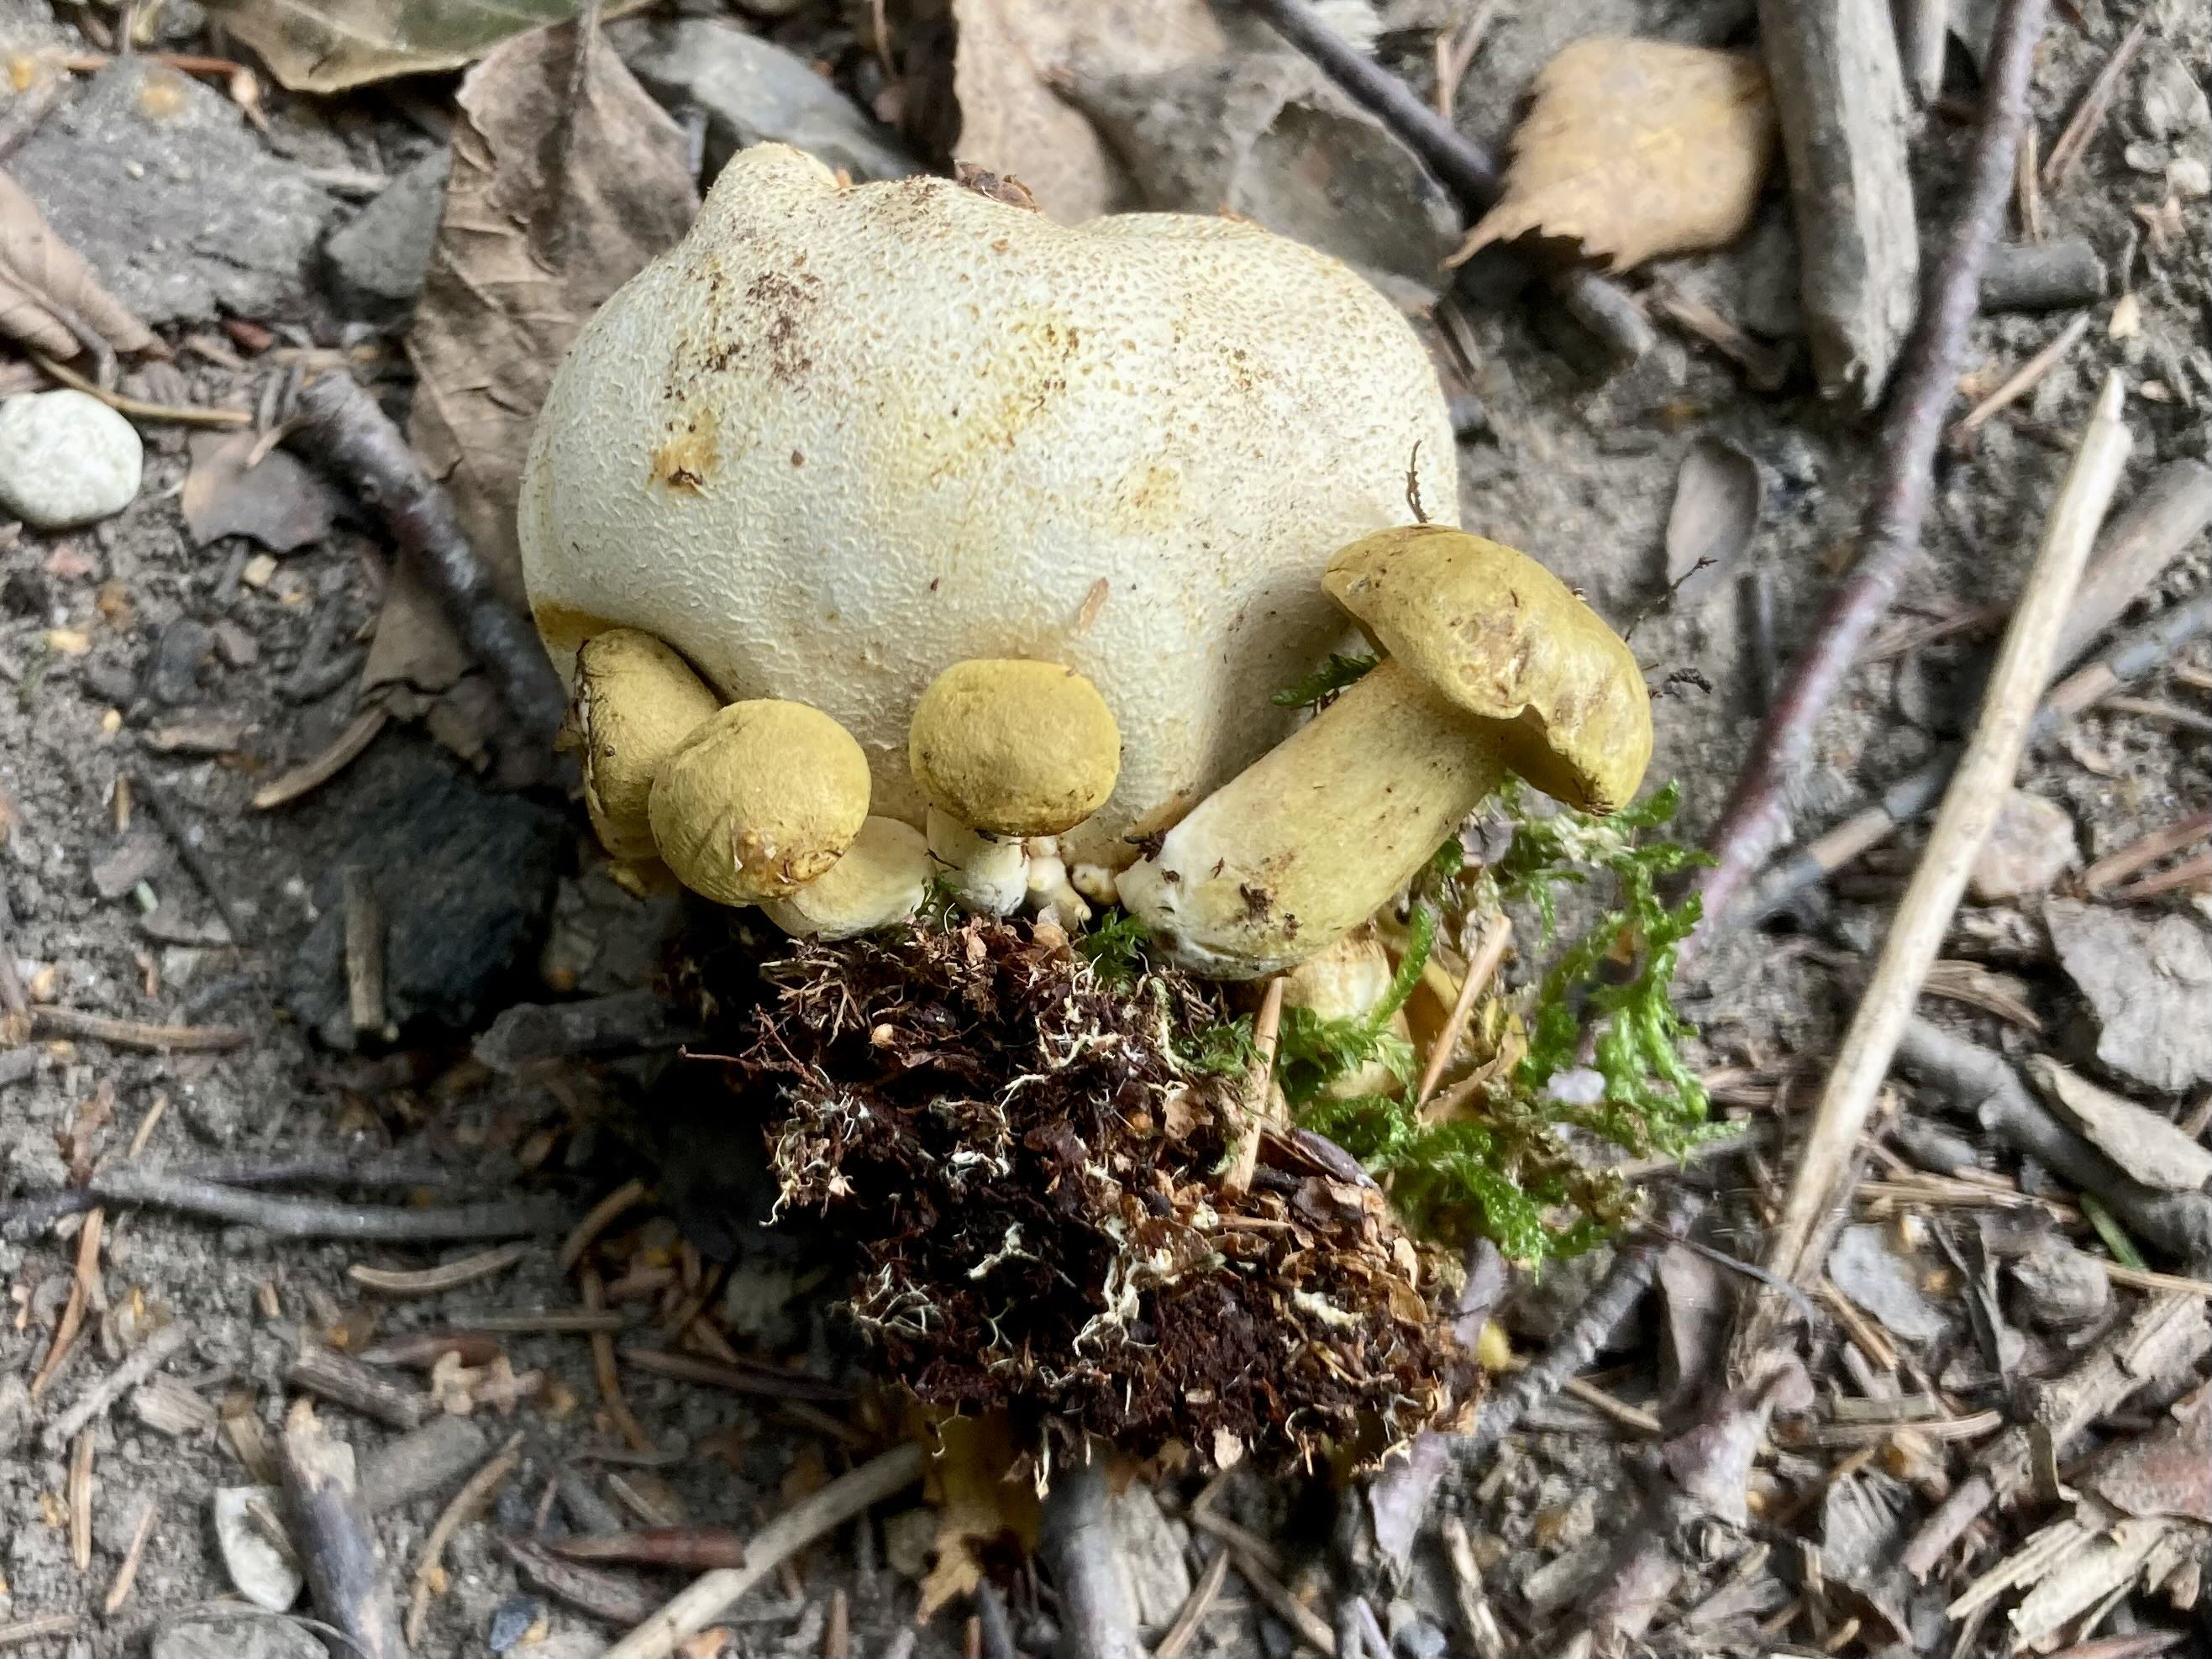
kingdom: Fungi
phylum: Basidiomycota
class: Agaricomycetes
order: Boletales
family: Boletaceae
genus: Pseudoboletus
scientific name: Pseudoboletus parasiticus
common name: snyltende rørhat
